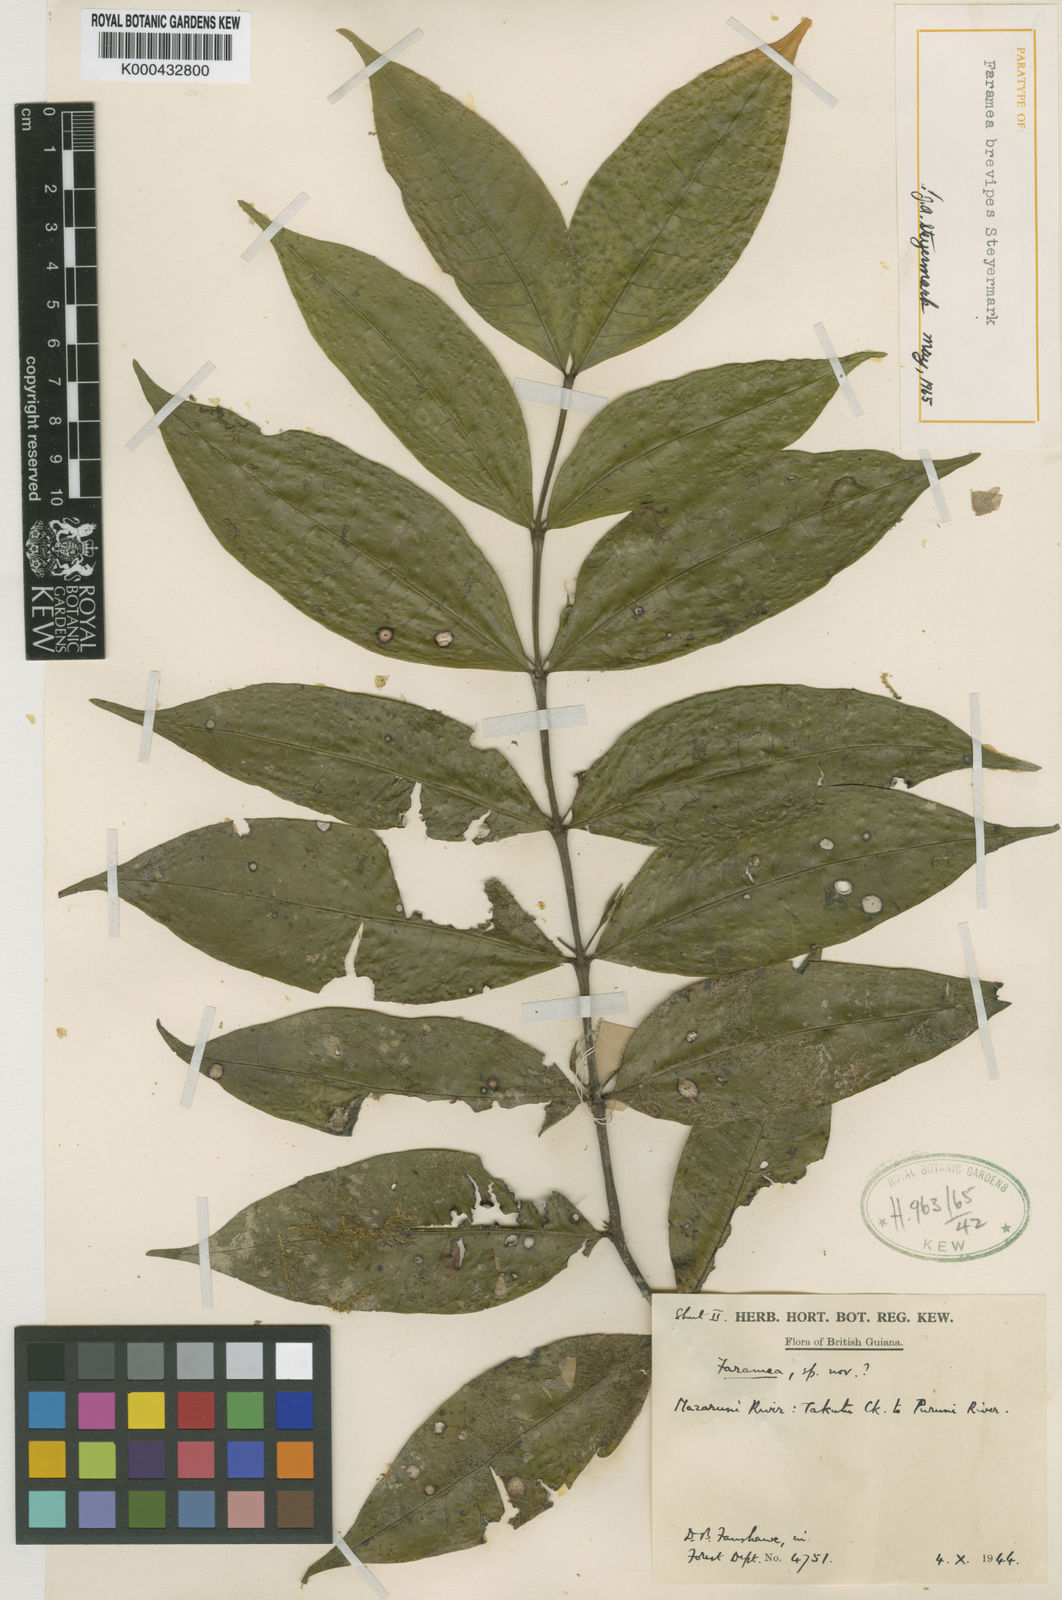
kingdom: Plantae
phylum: Tracheophyta
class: Magnoliopsida
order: Gentianales
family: Rubiaceae
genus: Faramea
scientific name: Faramea brevipes
